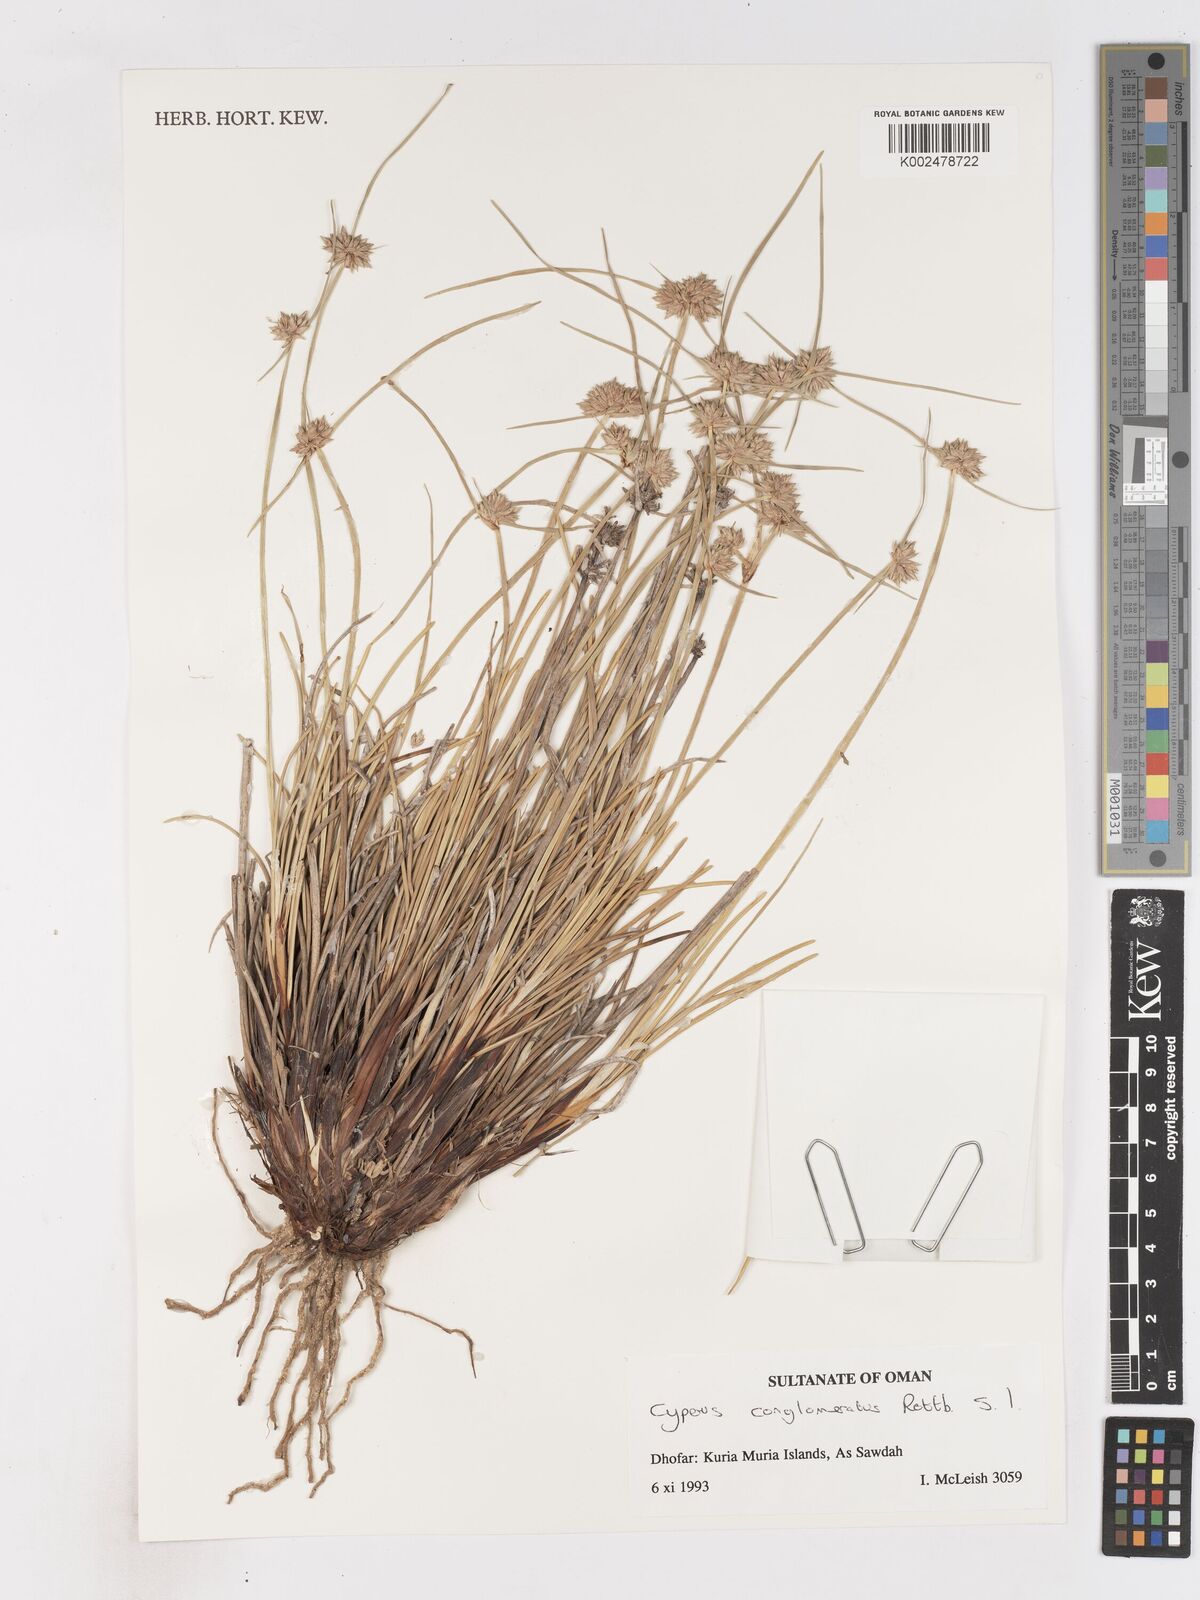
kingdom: Plantae
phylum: Tracheophyta
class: Liliopsida
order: Poales
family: Cyperaceae
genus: Cyperus
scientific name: Cyperus conglomeratus
